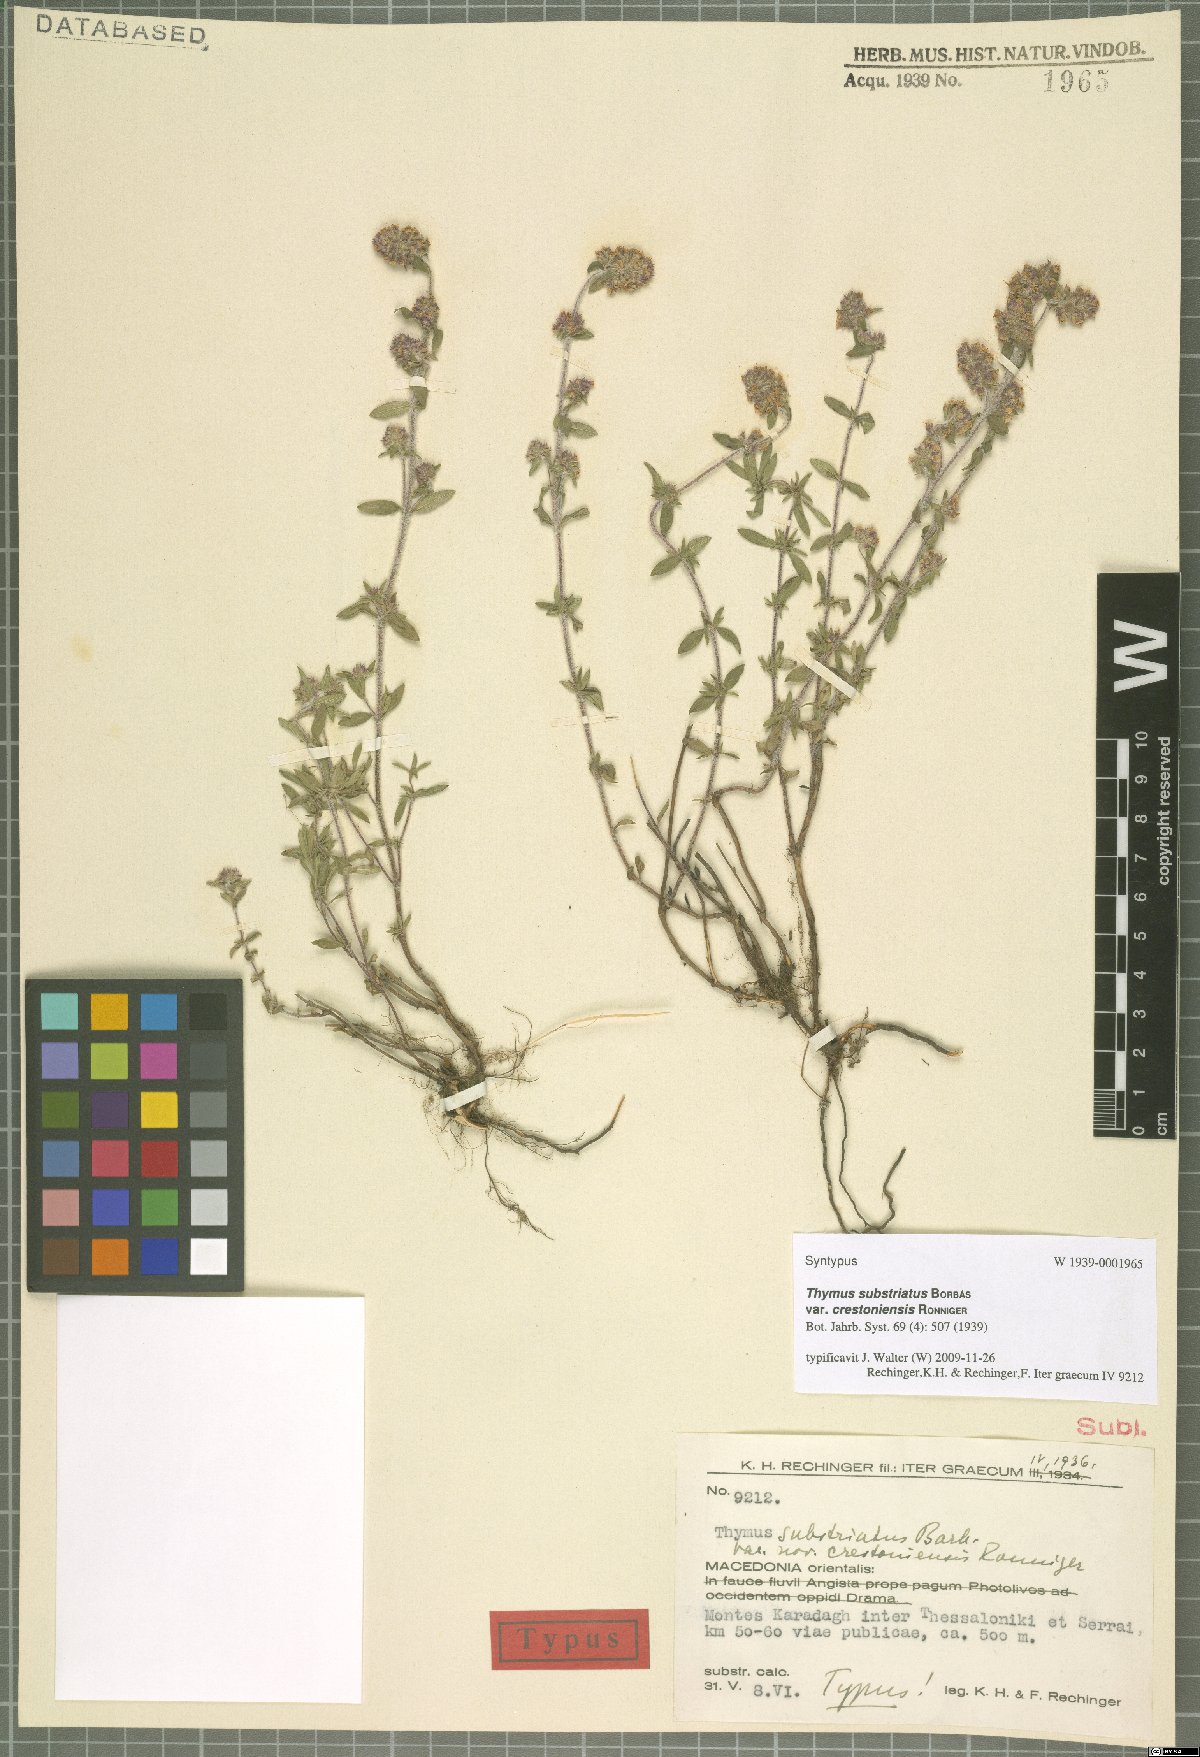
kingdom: Plantae
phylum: Tracheophyta
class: Magnoliopsida
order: Lamiales
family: Lamiaceae
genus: Thymus
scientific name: Thymus substriatus
